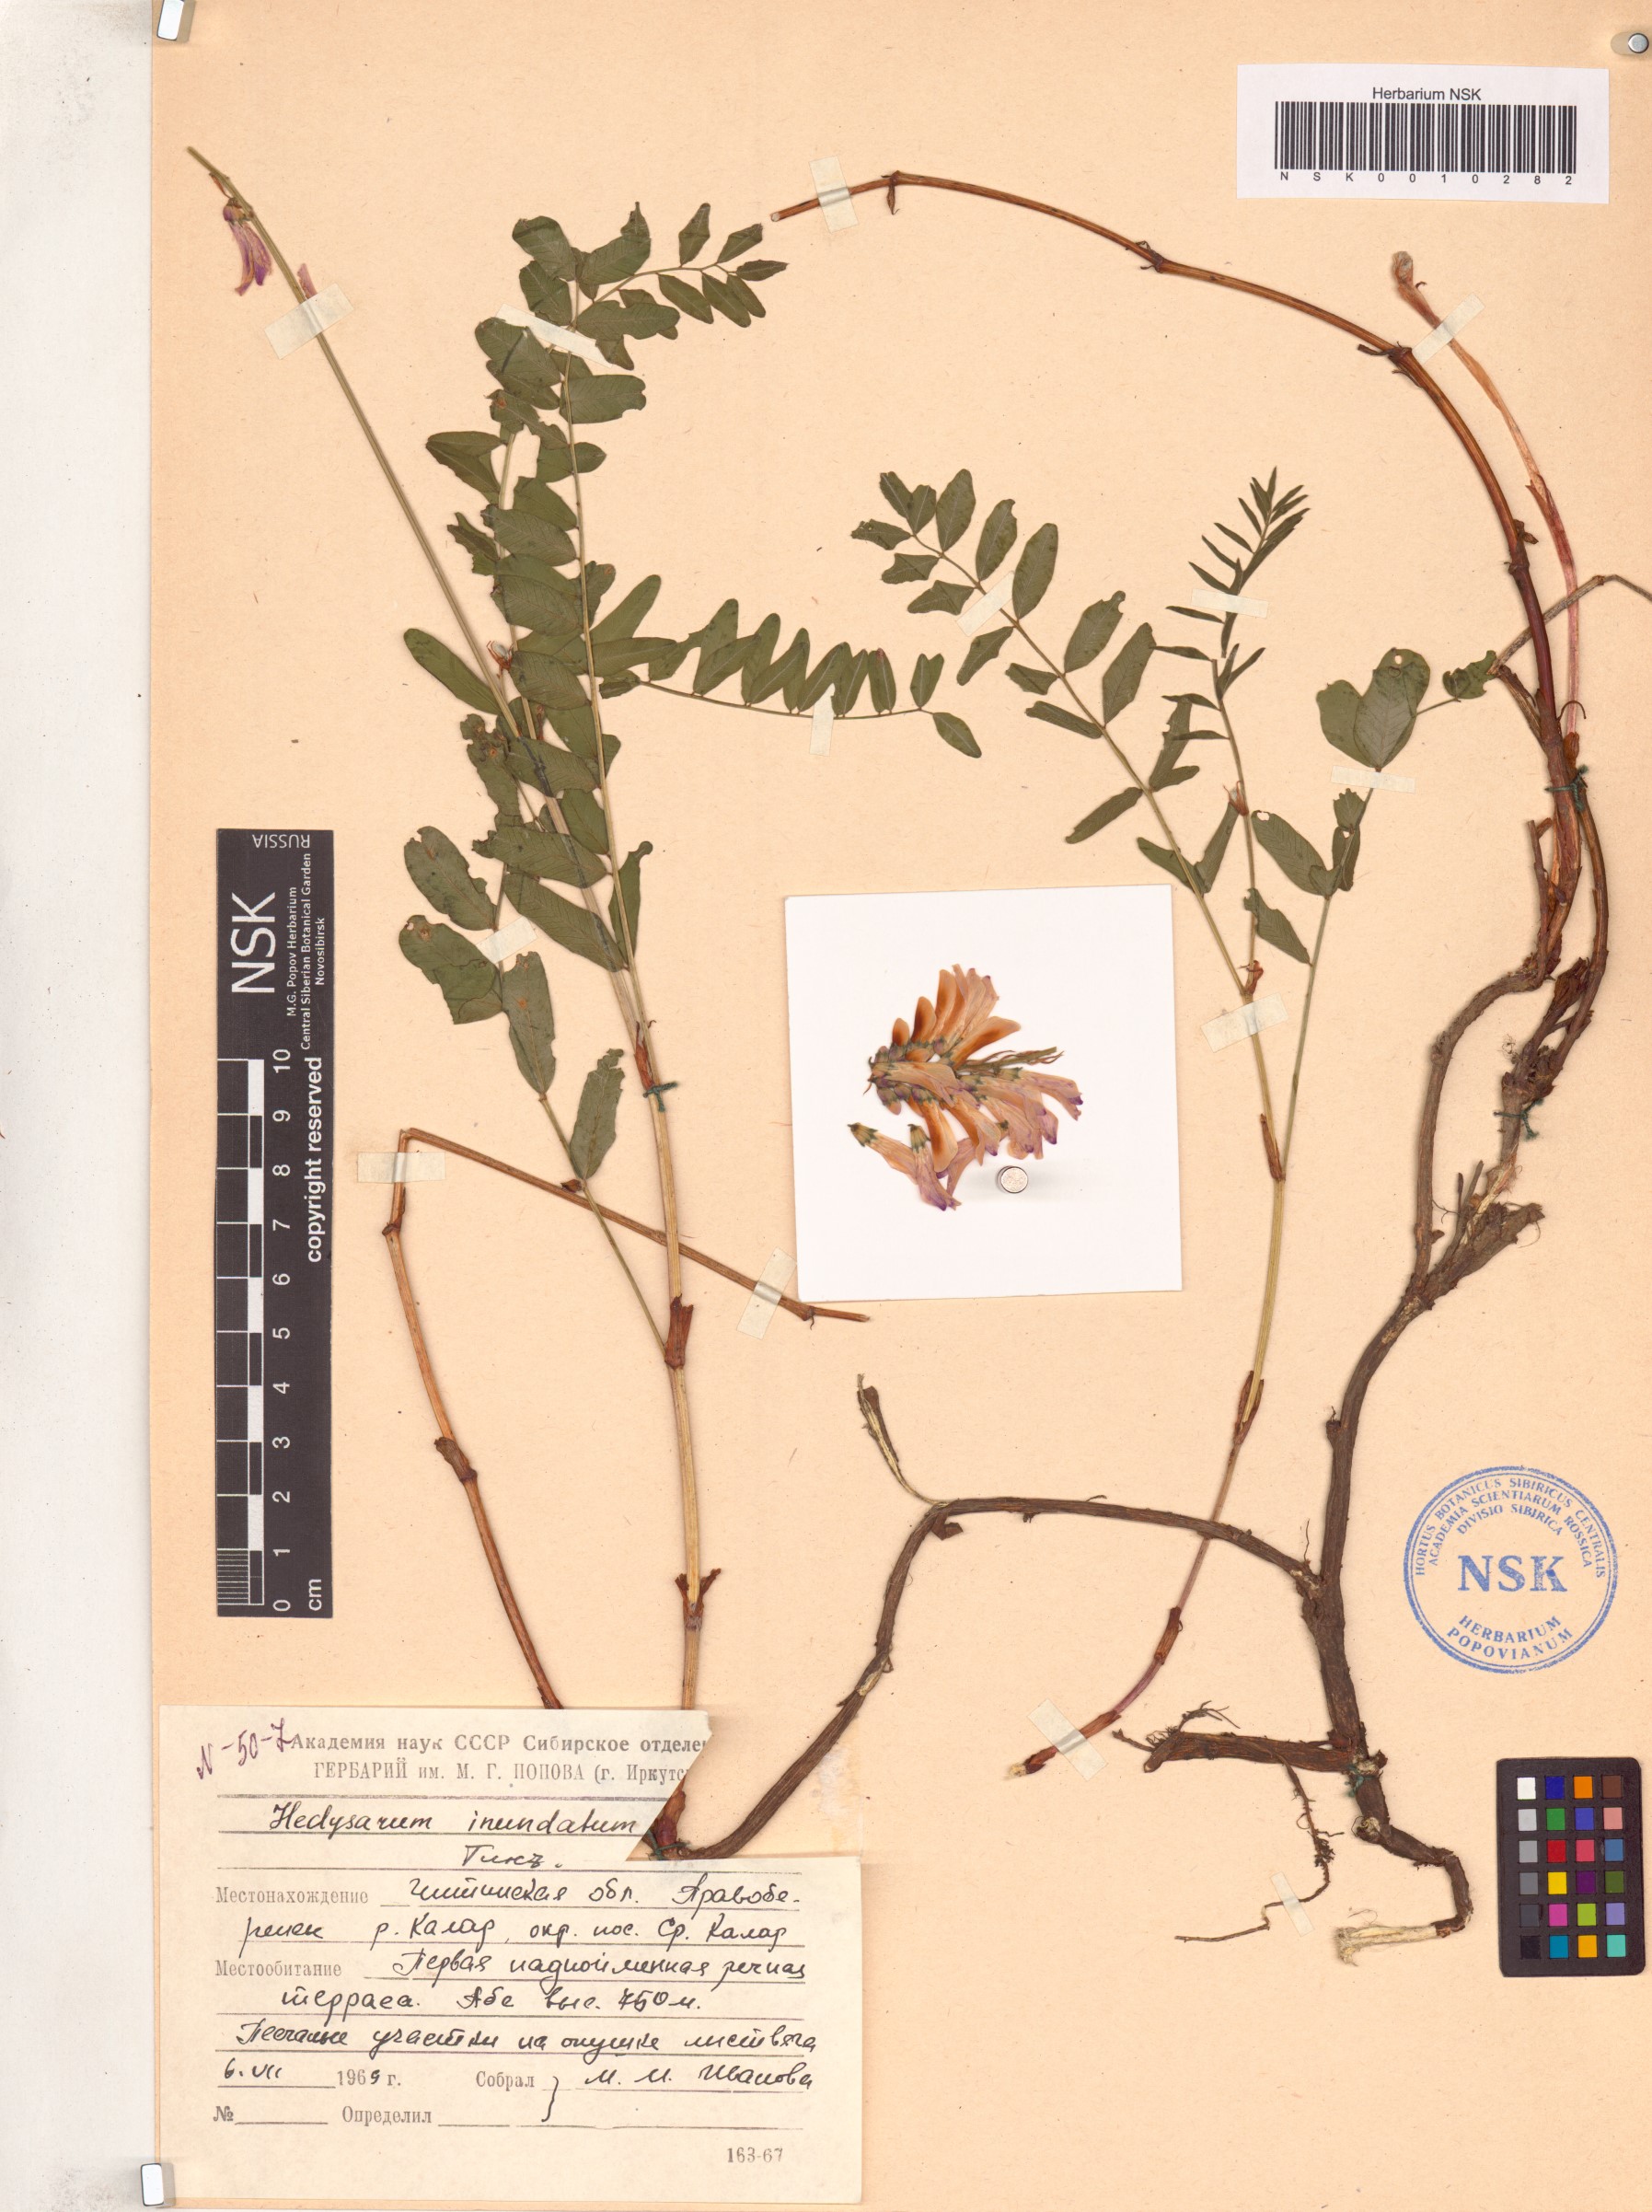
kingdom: Plantae
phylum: Tracheophyta
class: Magnoliopsida
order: Fabales
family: Fabaceae
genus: Hedysarum
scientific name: Hedysarum inundatum
